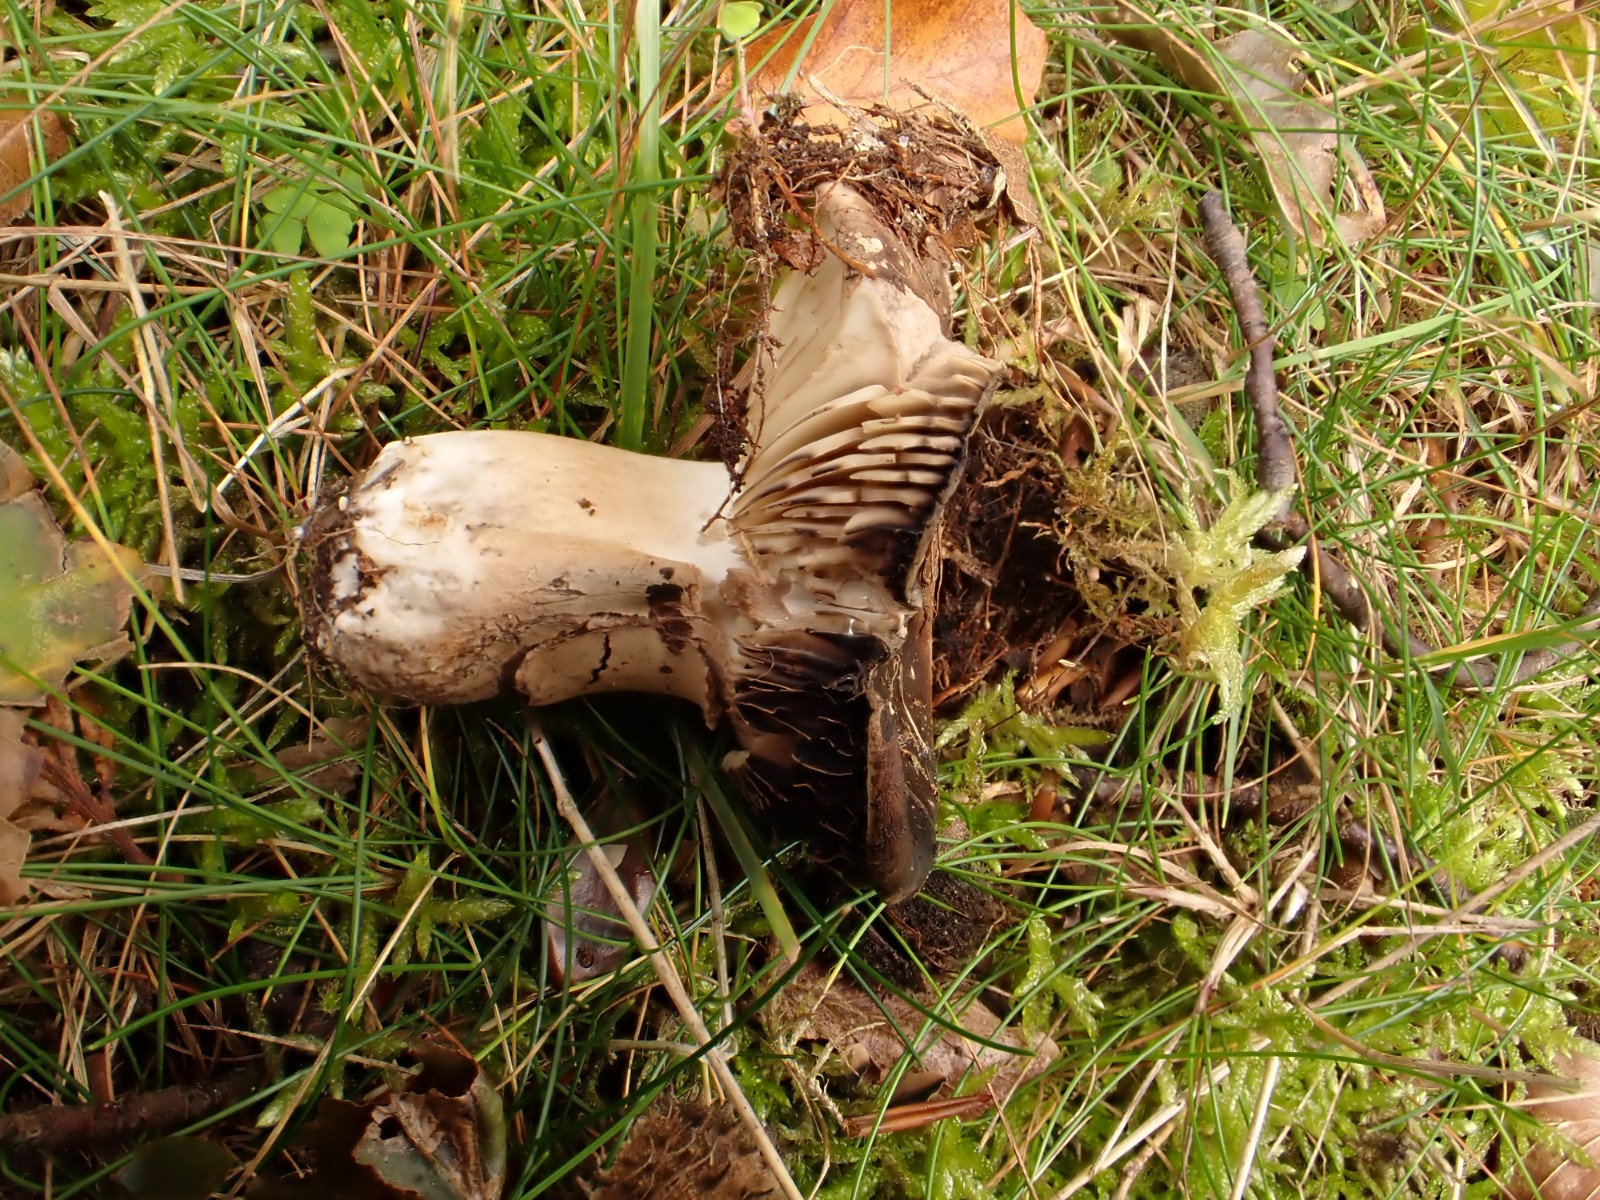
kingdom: Fungi
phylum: Basidiomycota
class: Agaricomycetes
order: Russulales
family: Russulaceae
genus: Russula
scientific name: Russula adusta
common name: sværtende skørhat
